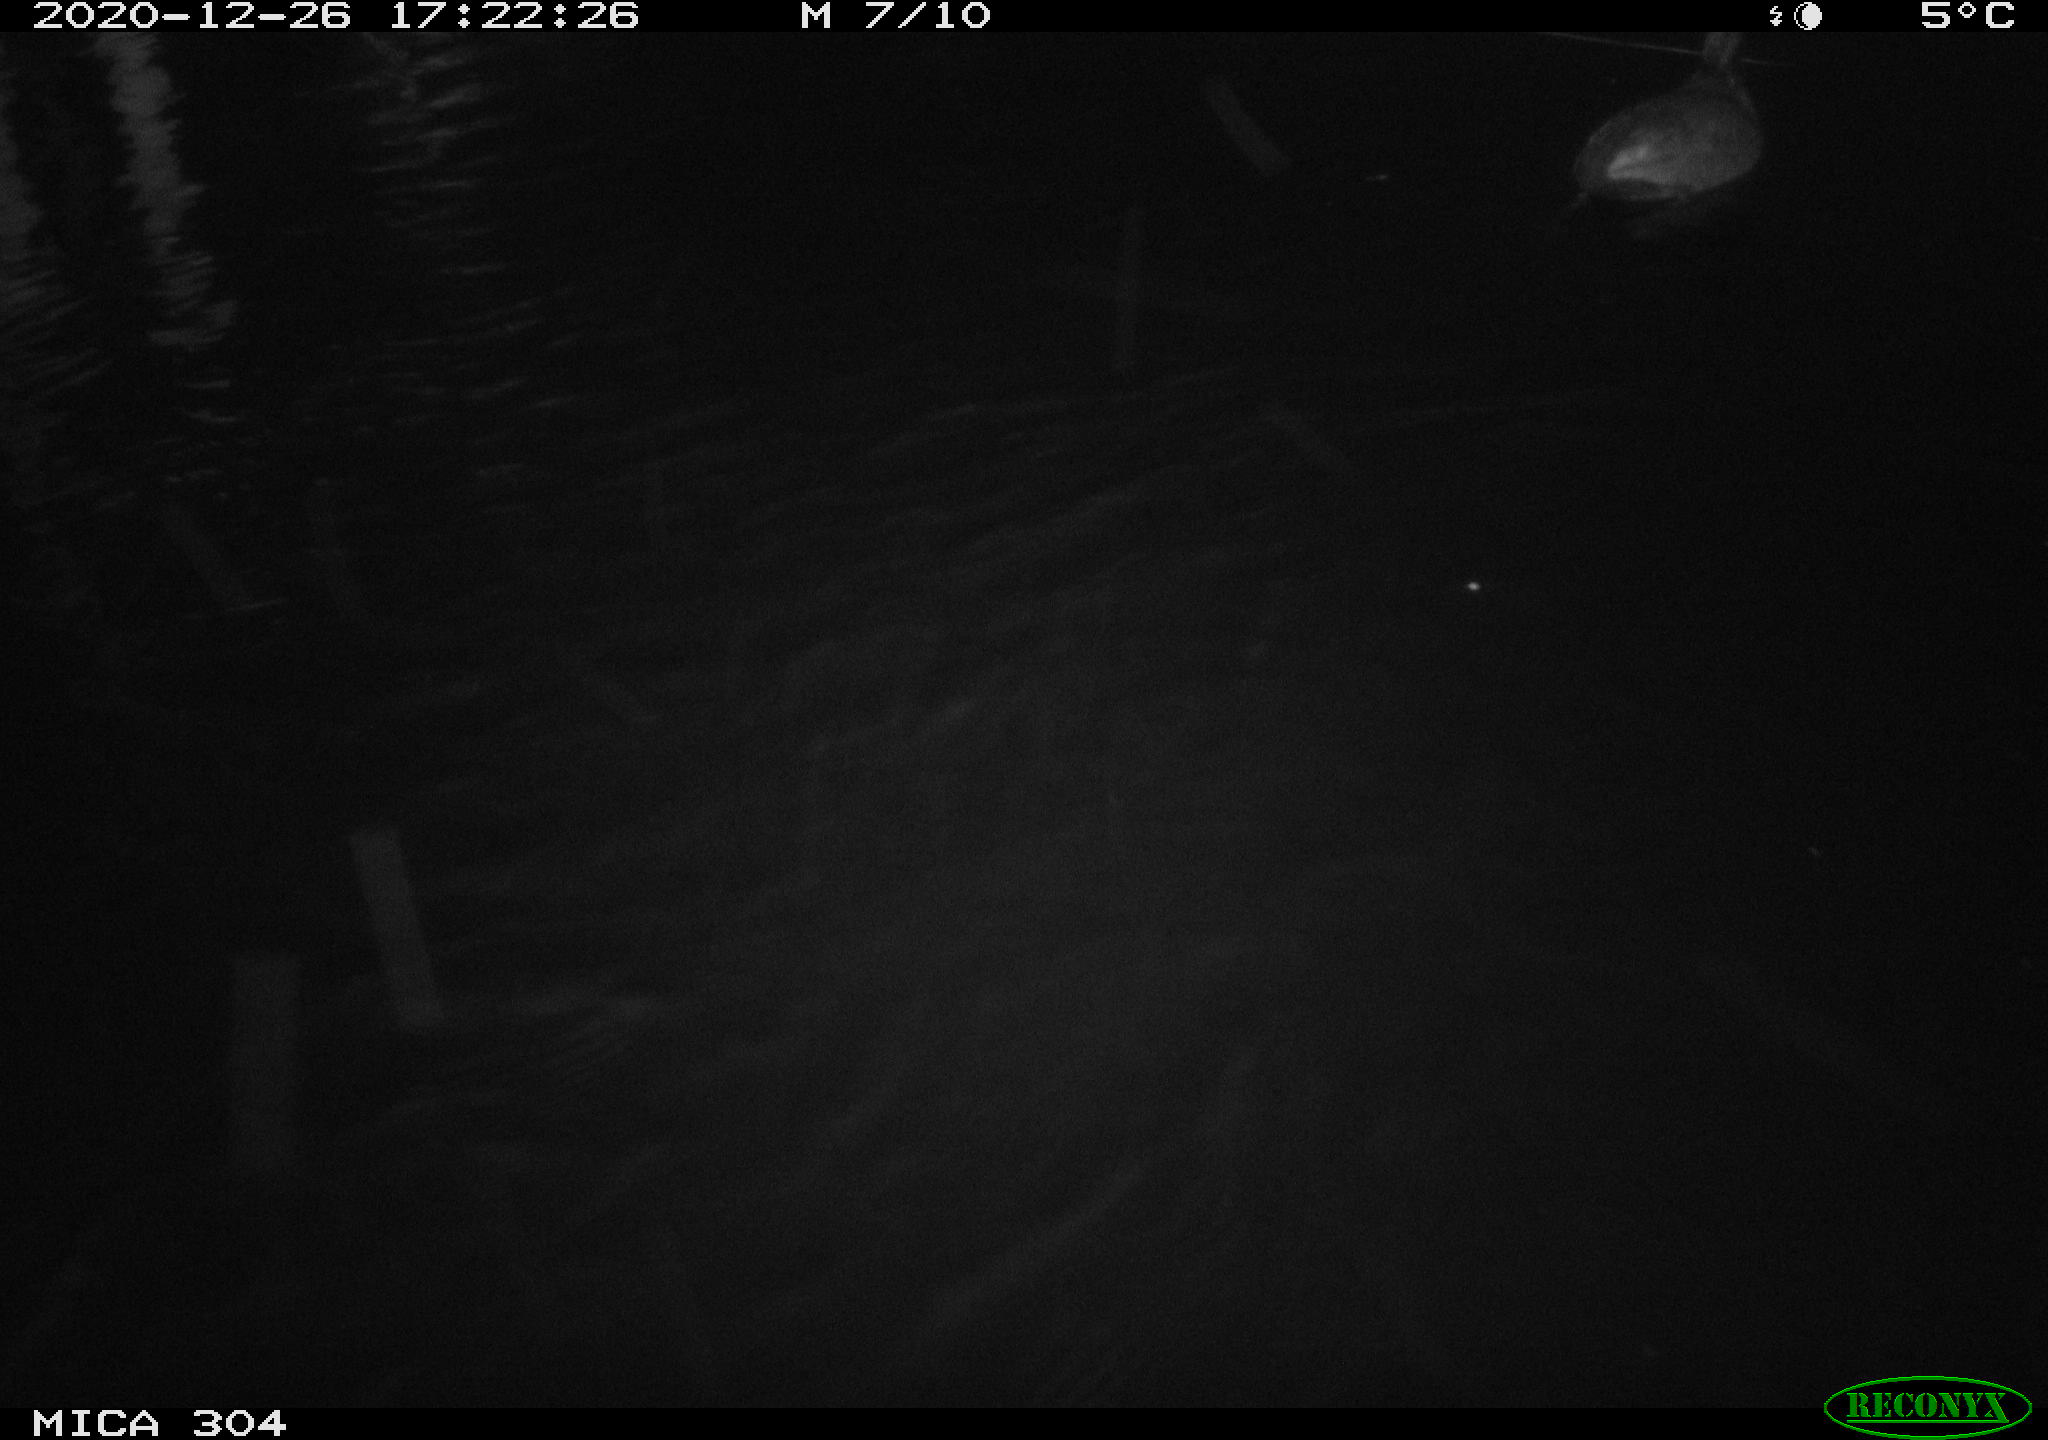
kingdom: Animalia
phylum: Chordata
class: Aves
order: Gruiformes
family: Rallidae
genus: Fulica
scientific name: Fulica atra
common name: Eurasian coot
